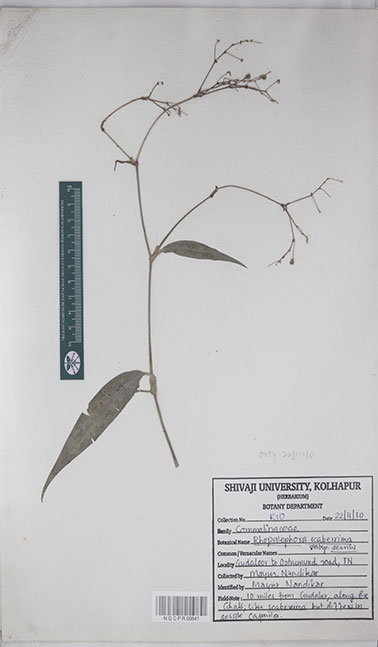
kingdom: Plantae
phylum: Tracheophyta
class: Liliopsida
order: Commelinales
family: Commelinaceae
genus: Rhopalephora
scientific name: Rhopalephora scaberrima
